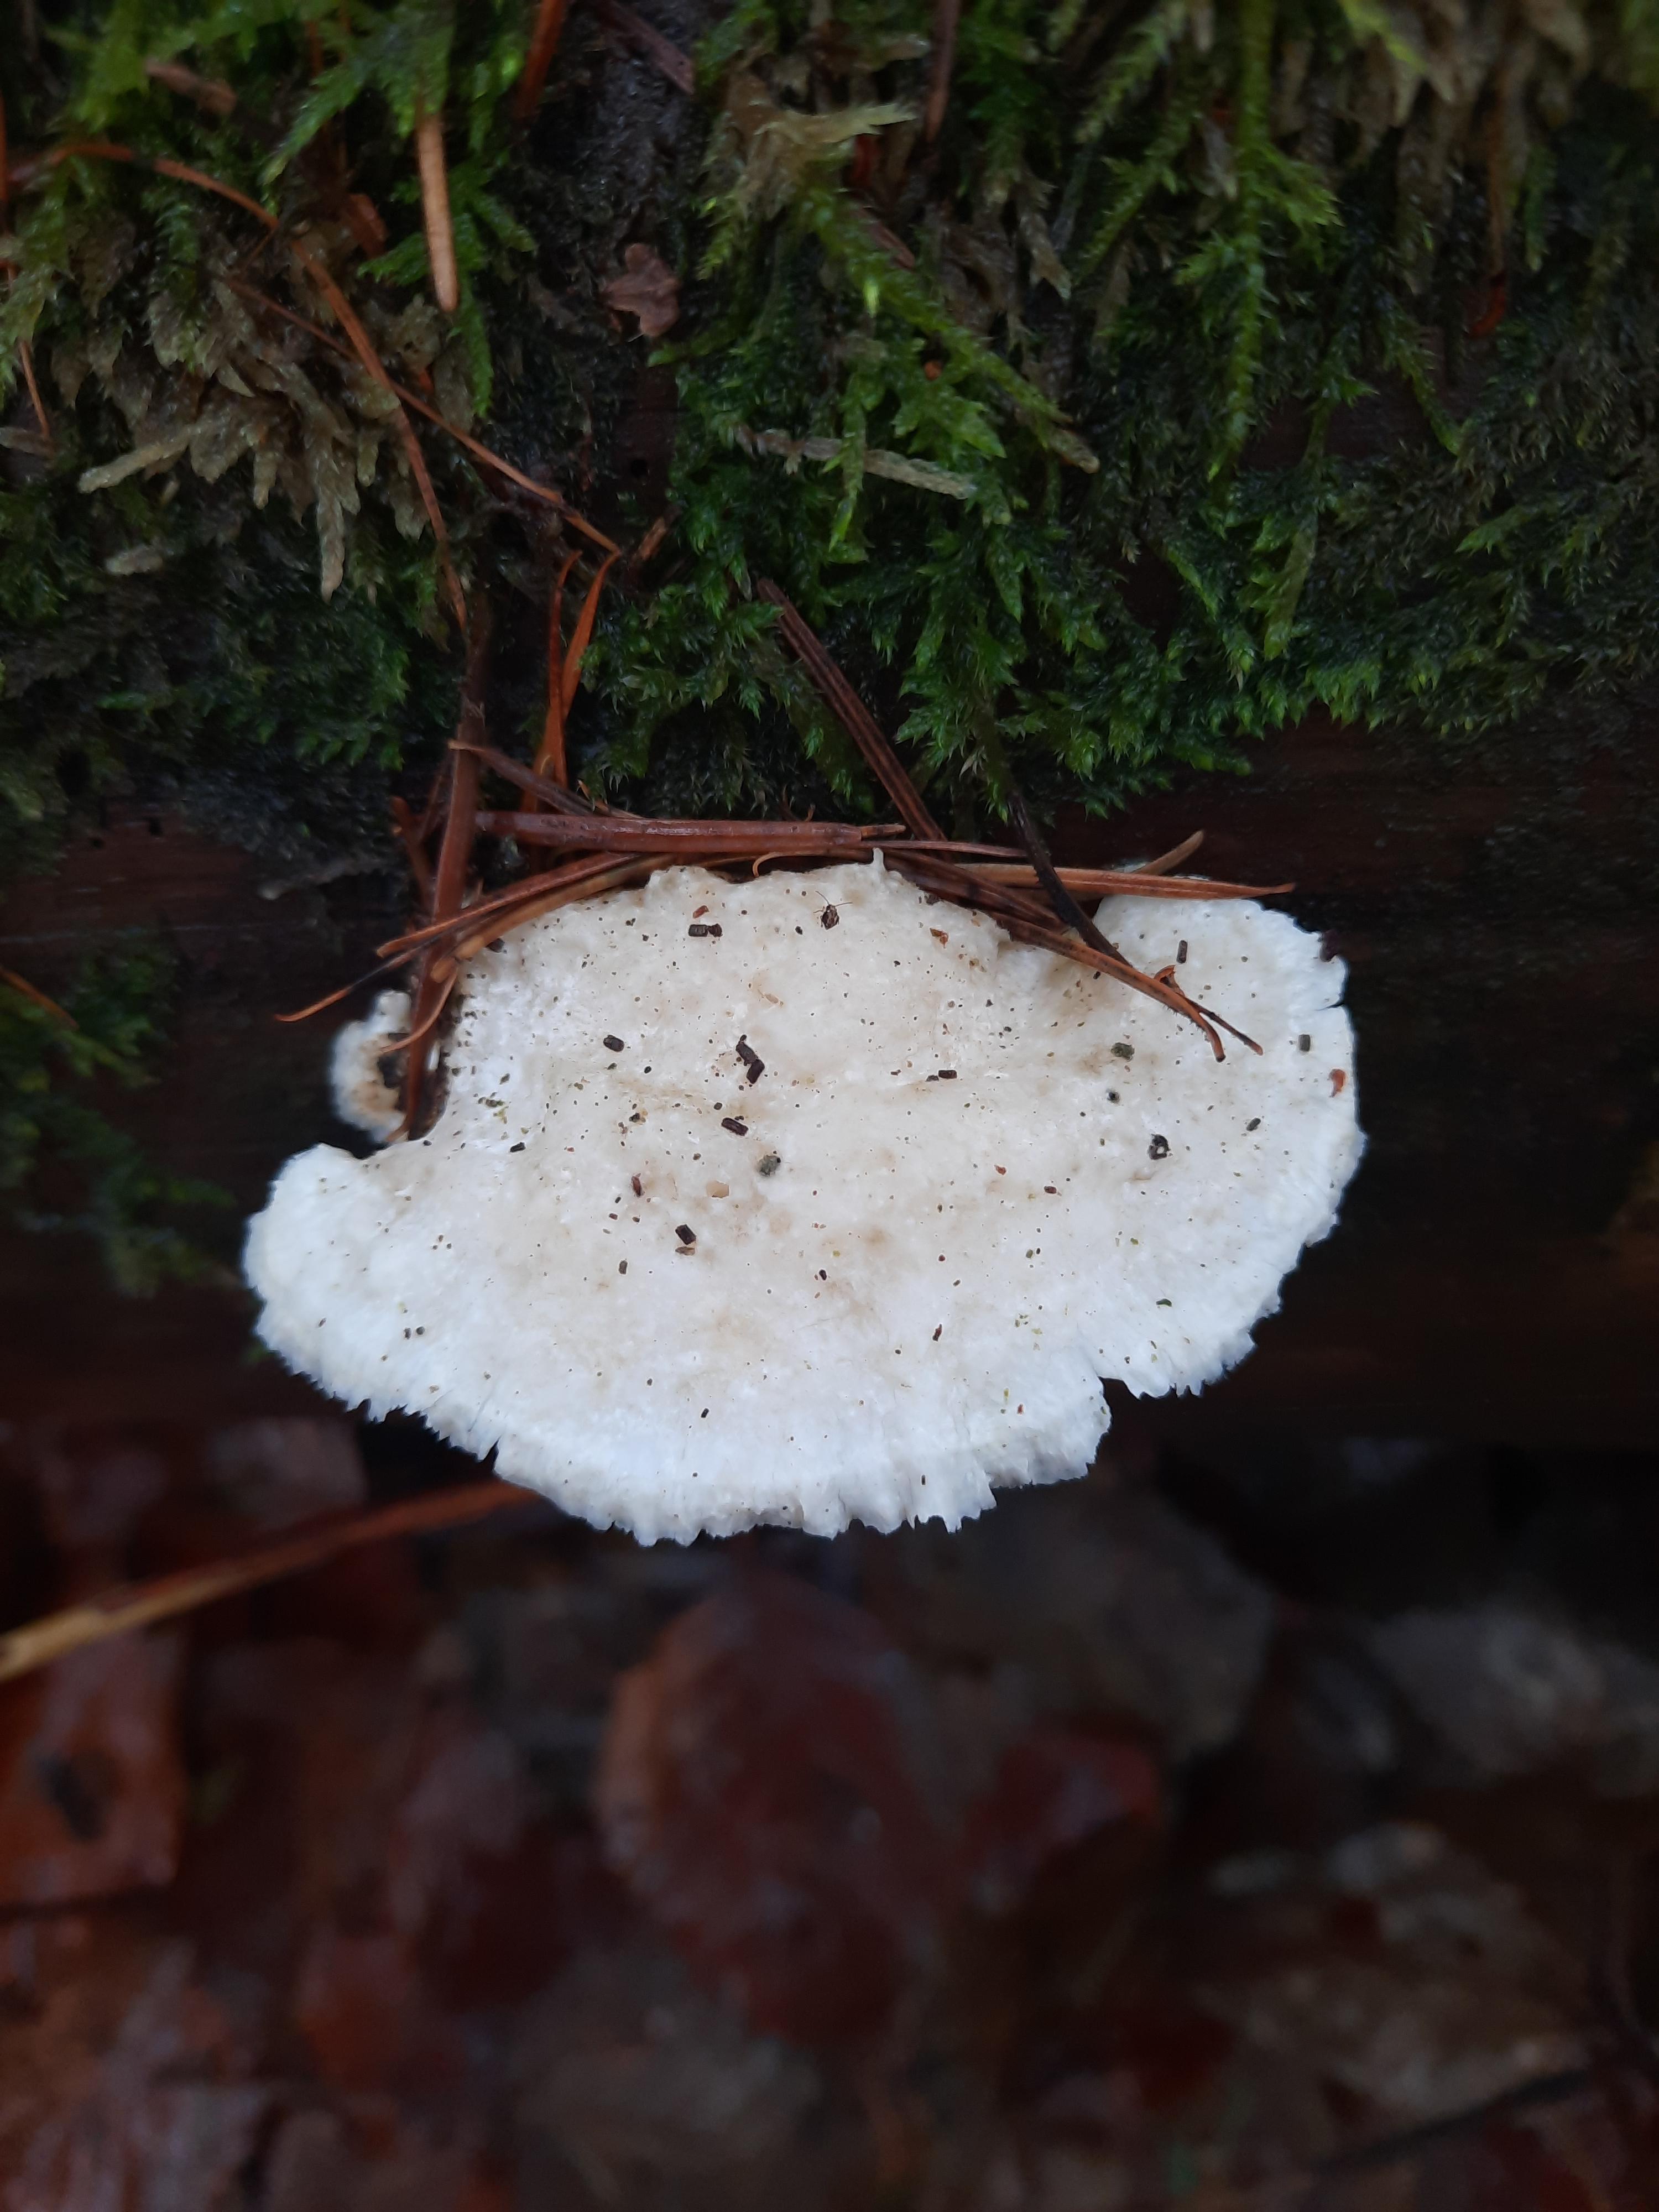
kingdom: Fungi
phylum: Basidiomycota
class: Agaricomycetes
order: Polyporales
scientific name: Polyporales
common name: poresvampordenen
